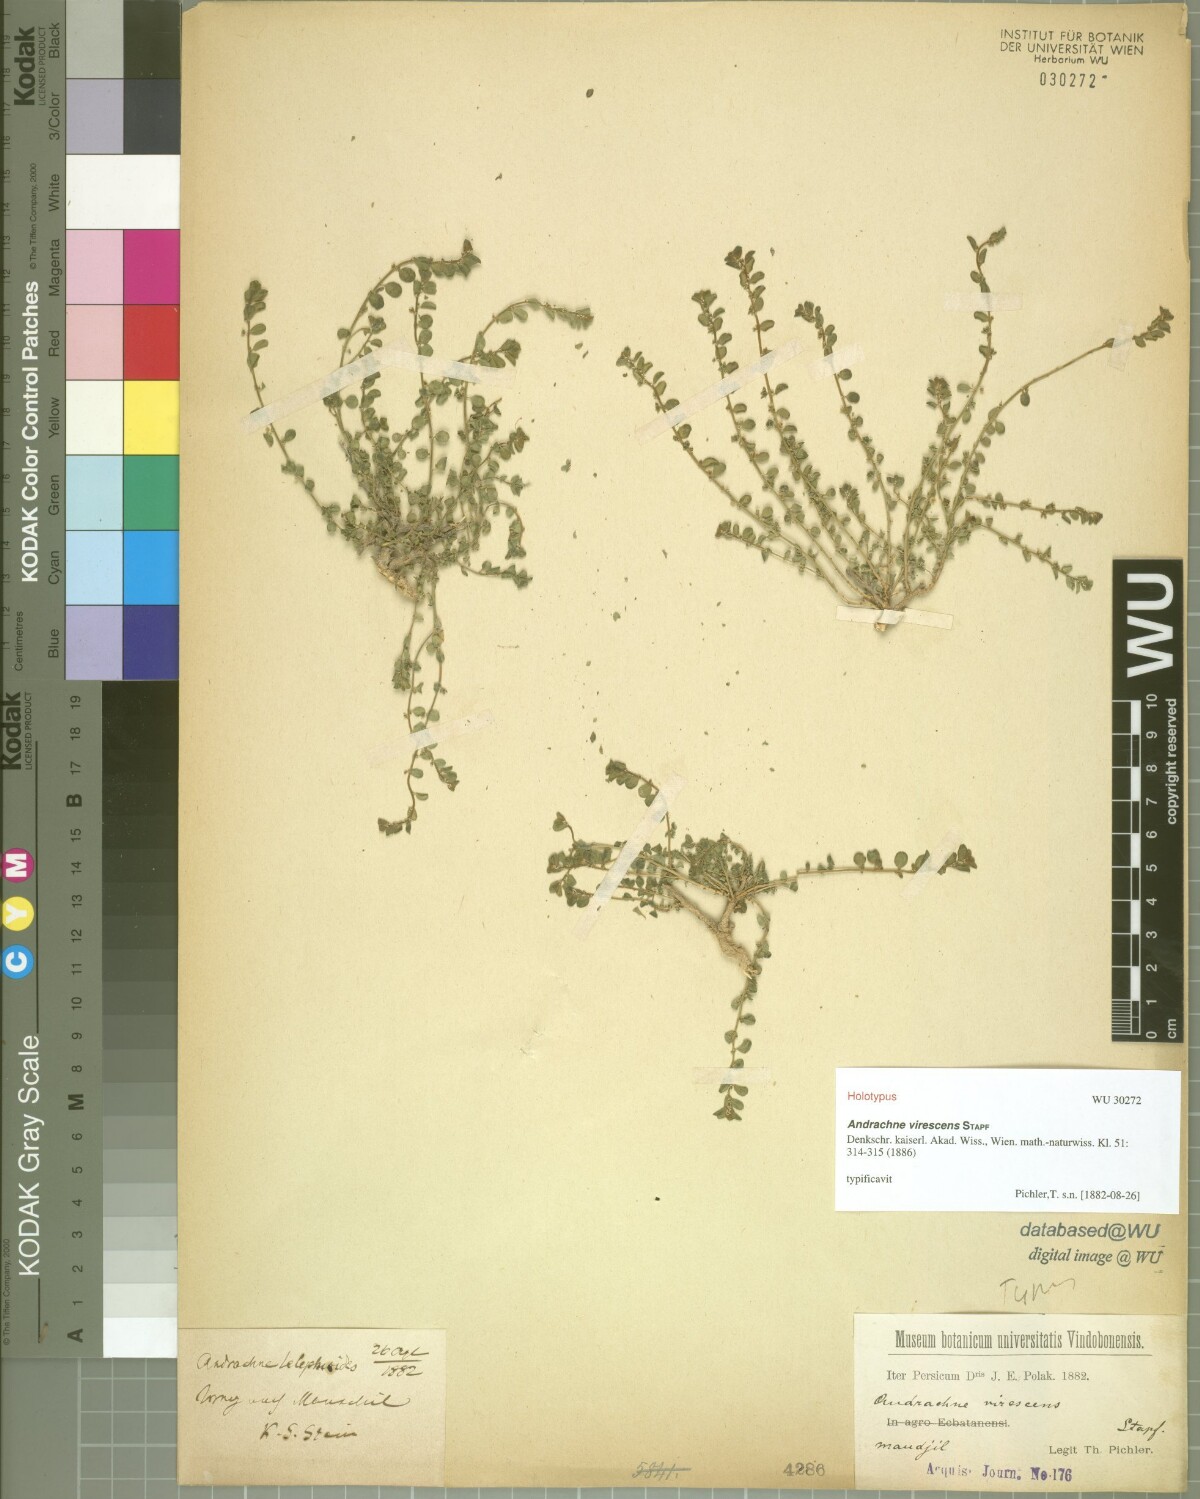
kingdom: Plantae
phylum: Tracheophyta
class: Magnoliopsida
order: Malpighiales
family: Phyllanthaceae
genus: Andrachne
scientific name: Andrachne telephioides
